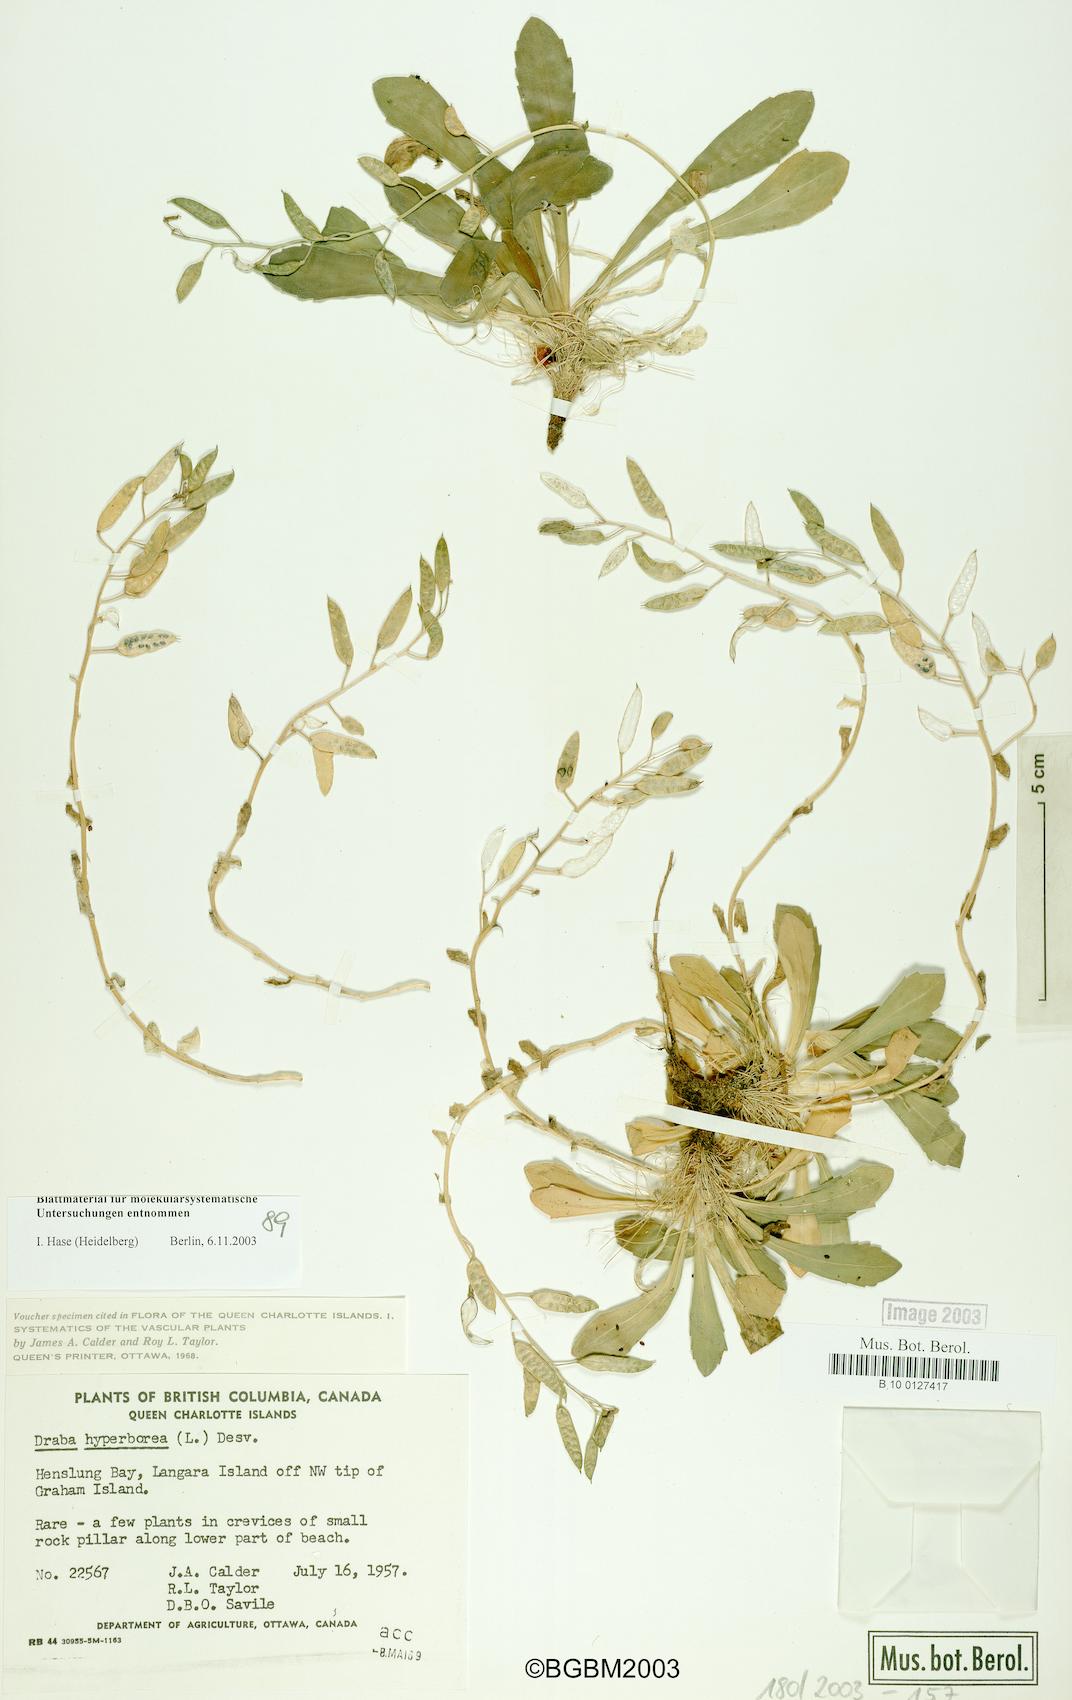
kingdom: Plantae
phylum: Tracheophyta
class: Magnoliopsida
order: Brassicales
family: Brassicaceae
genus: Draba
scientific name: Draba hyperborea
